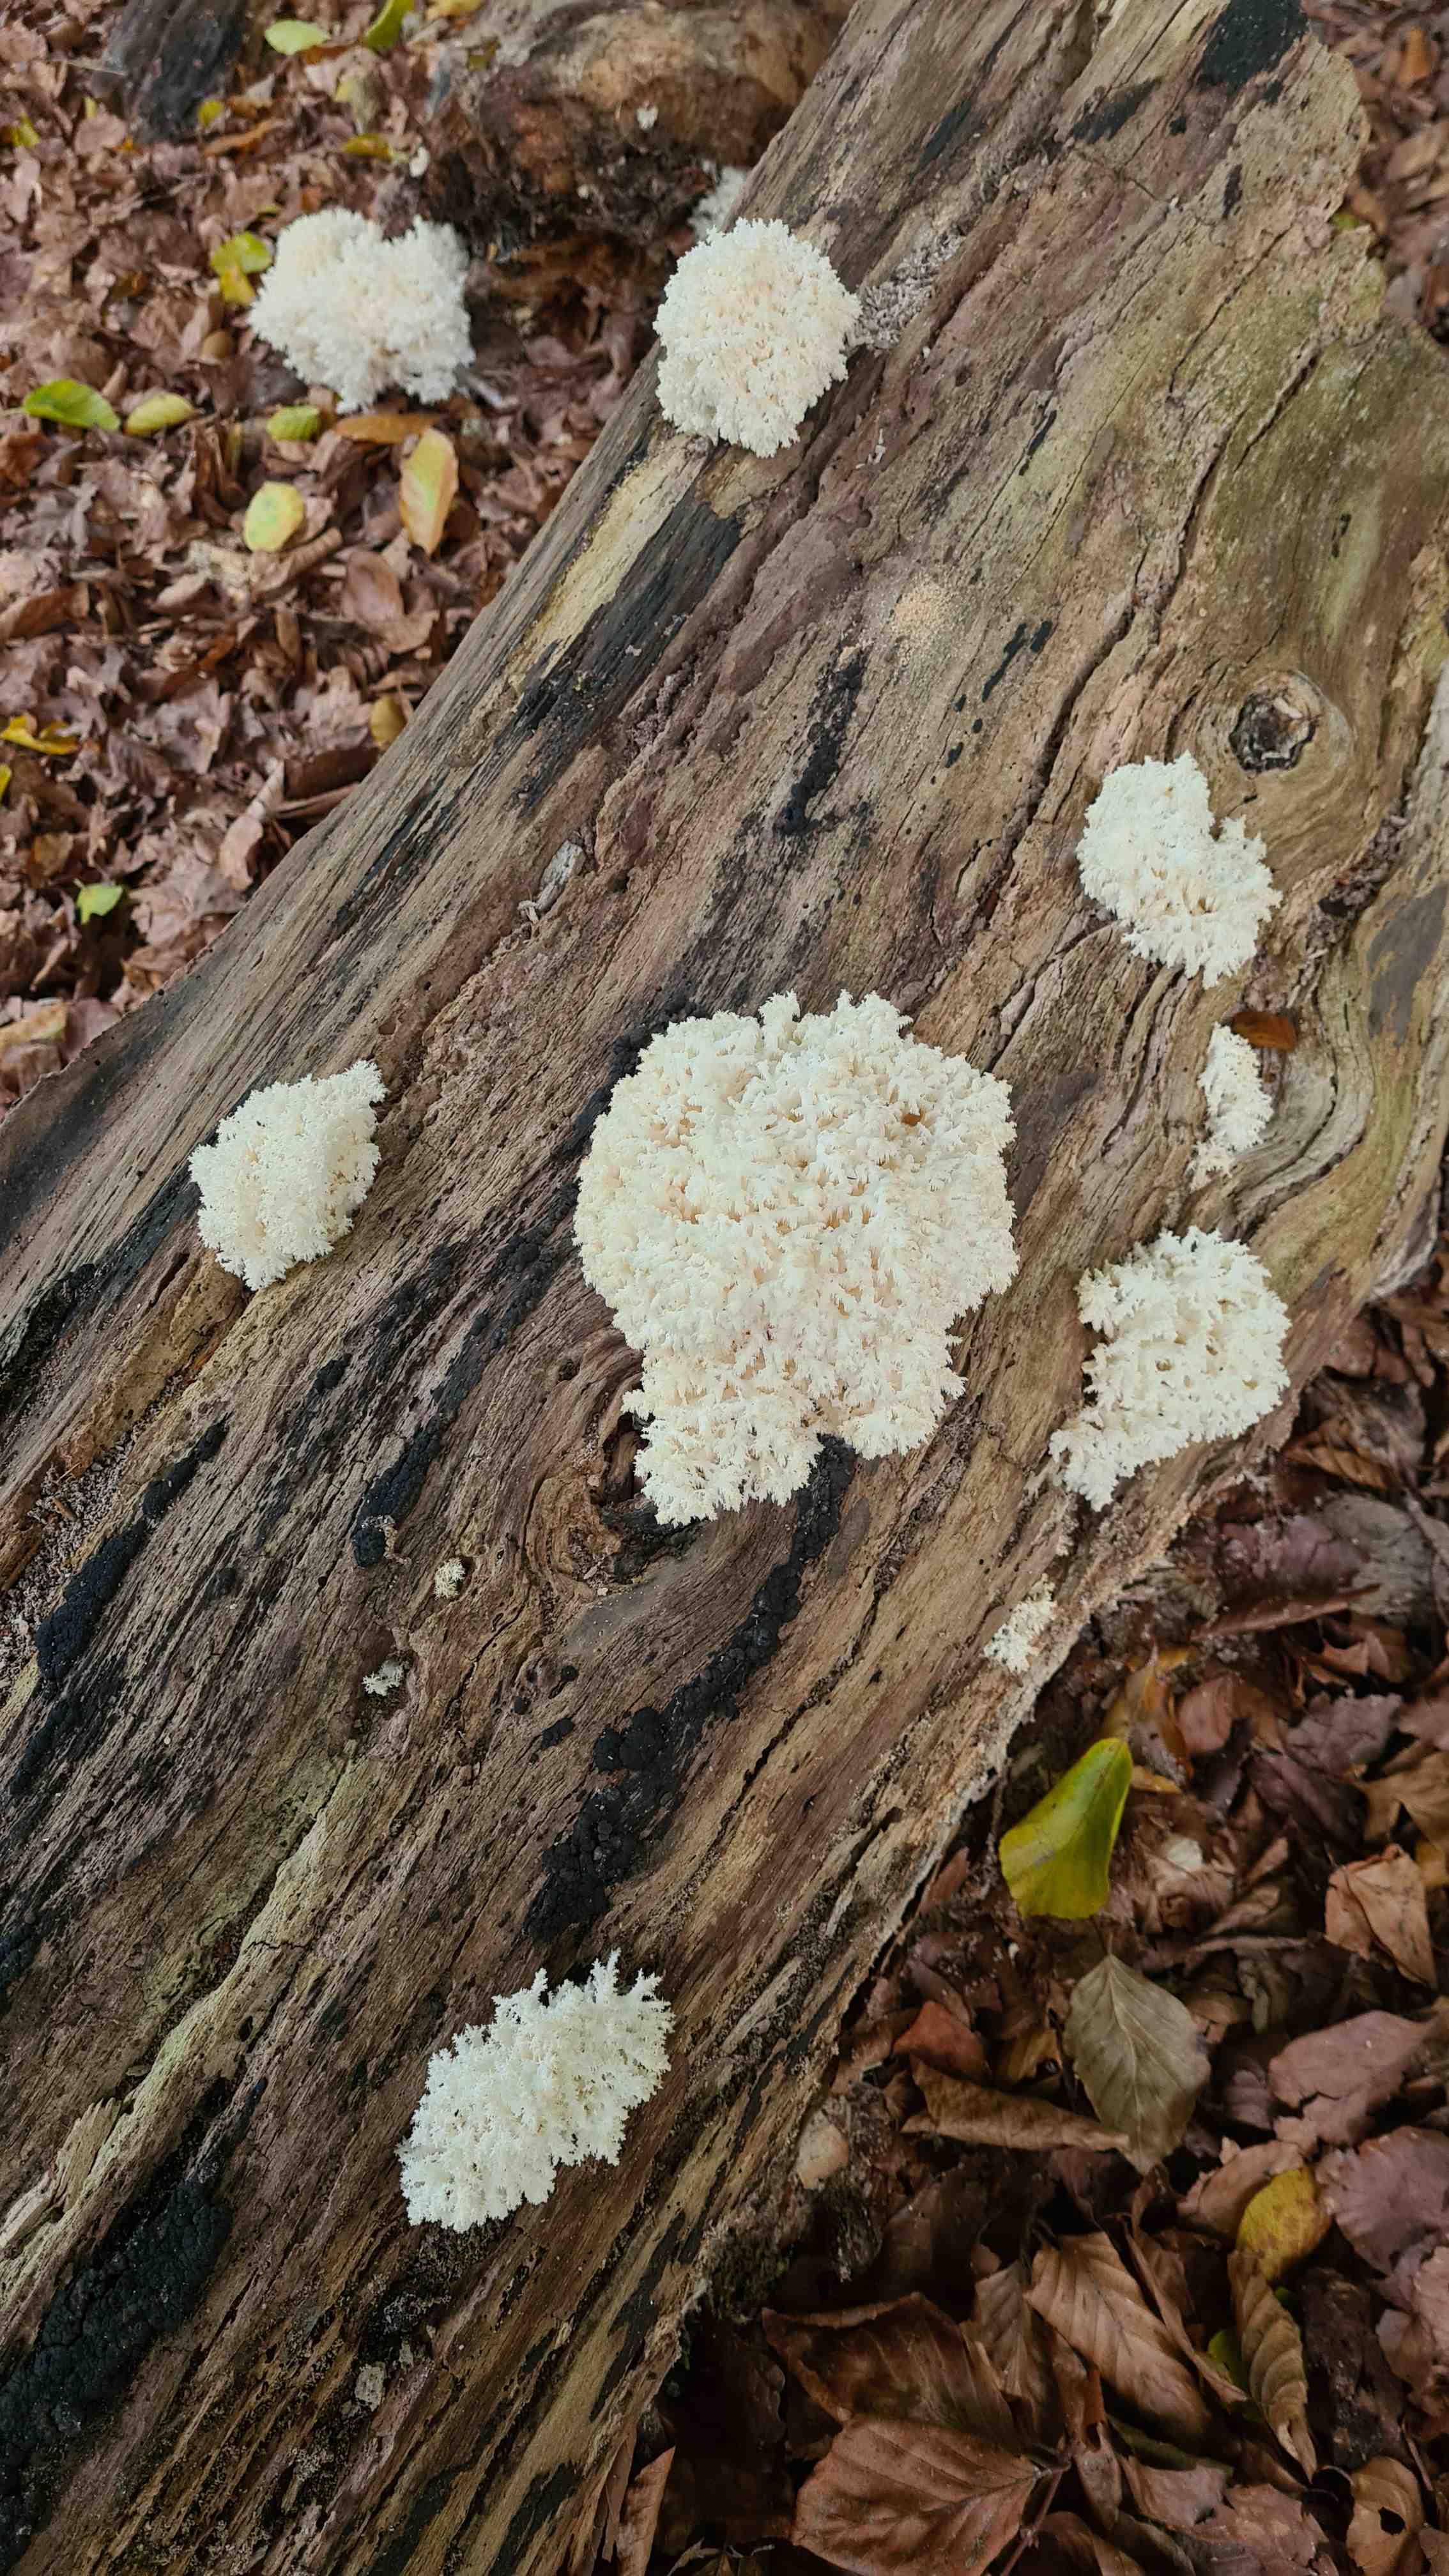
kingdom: Fungi
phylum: Basidiomycota
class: Agaricomycetes
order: Russulales
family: Hericiaceae
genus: Hericium
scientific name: Hericium coralloides
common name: koralpigsvamp
